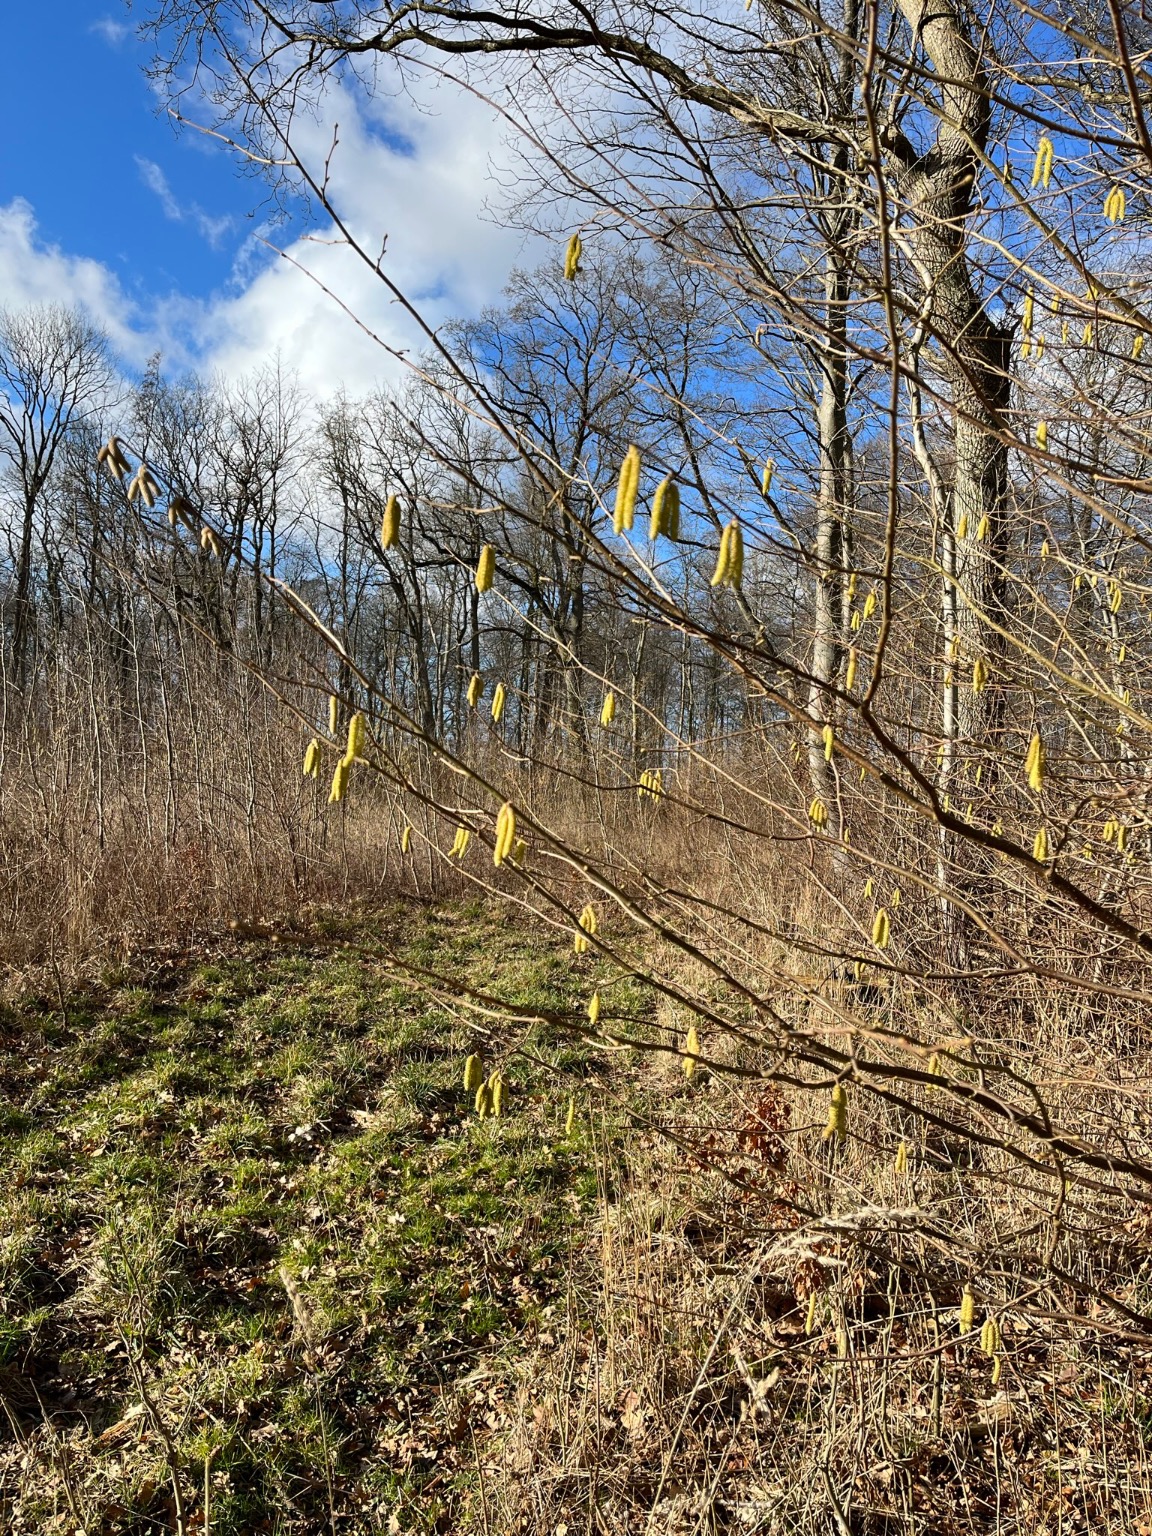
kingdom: Plantae
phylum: Tracheophyta
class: Magnoliopsida
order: Fagales
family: Betulaceae
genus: Corylus
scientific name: Corylus avellana
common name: Hassel
